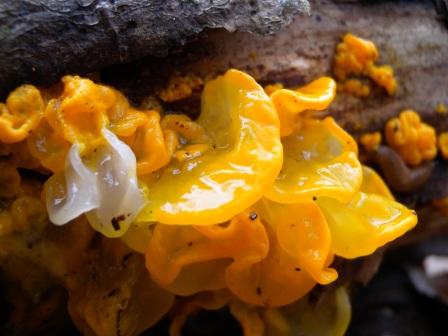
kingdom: Fungi
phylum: Basidiomycota
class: Tremellomycetes
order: Tremellales
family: Tremellaceae
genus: Tremella
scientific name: Tremella mesenterica
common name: gul bævresvamp
